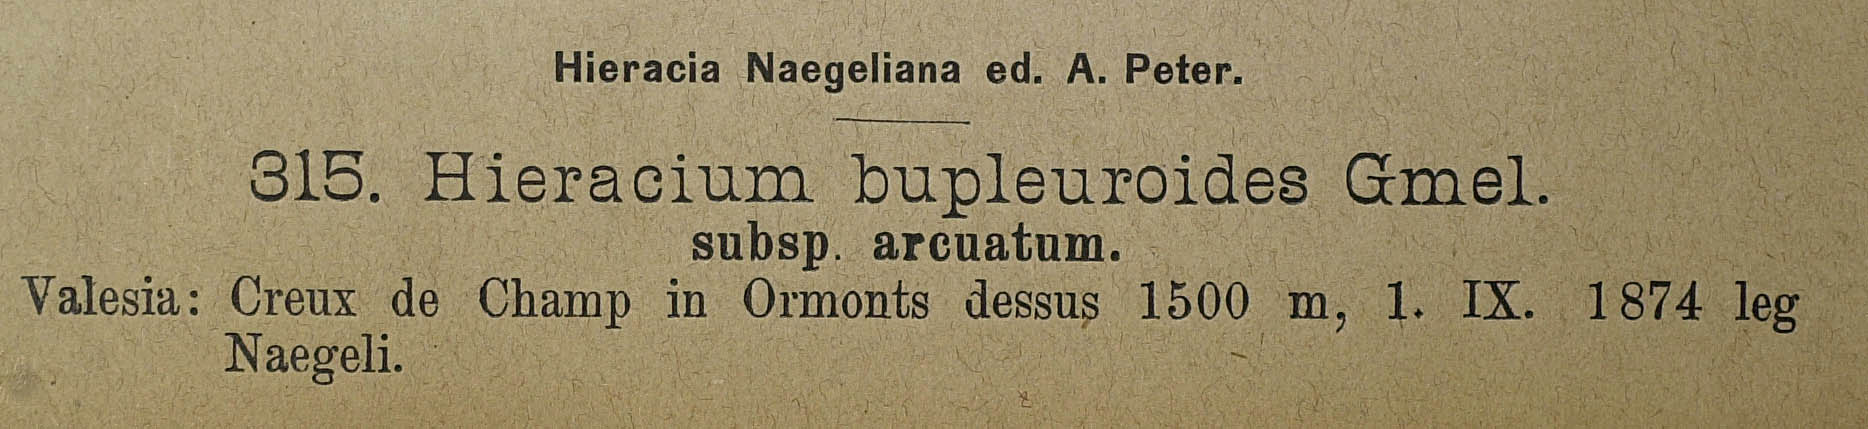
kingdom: Plantae
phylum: Tracheophyta
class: Magnoliopsida
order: Asterales
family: Asteraceae
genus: Hieracium
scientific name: Hieracium bupleuroides
